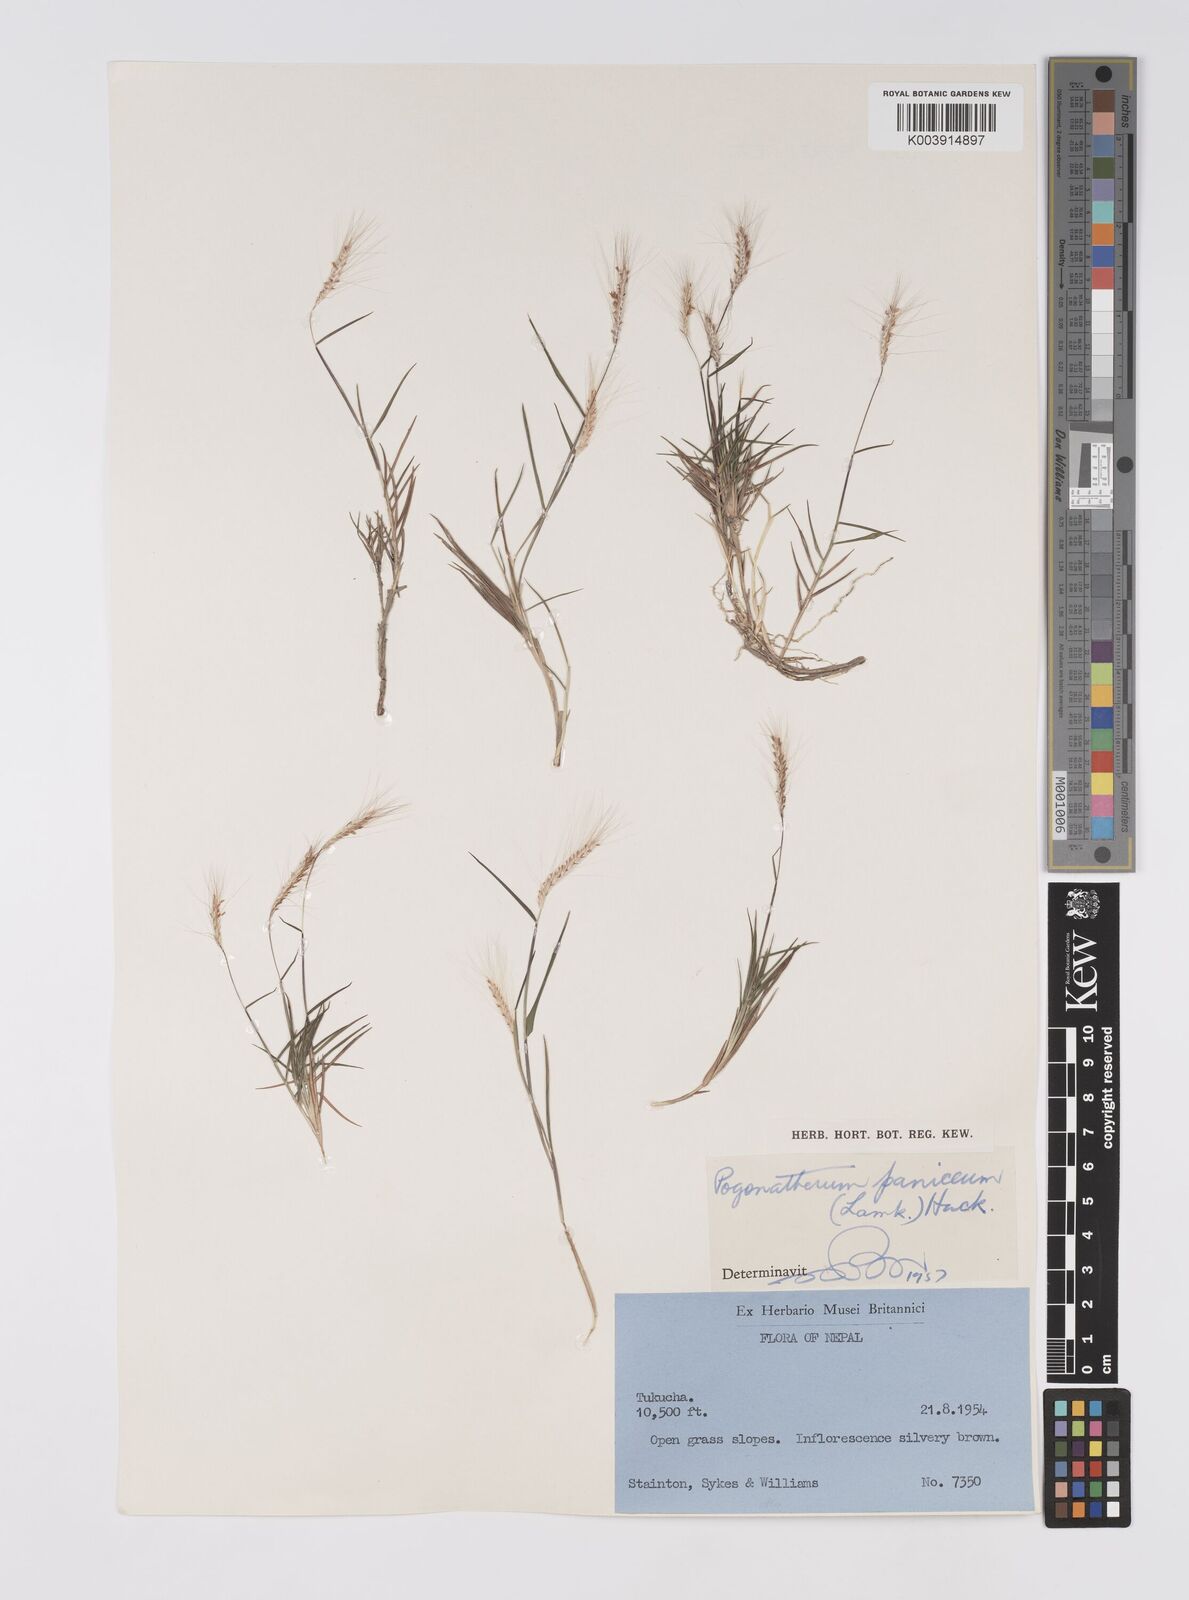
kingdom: Plantae
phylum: Tracheophyta
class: Liliopsida
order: Poales
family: Poaceae
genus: Pogonatherum
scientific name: Pogonatherum paniceum
